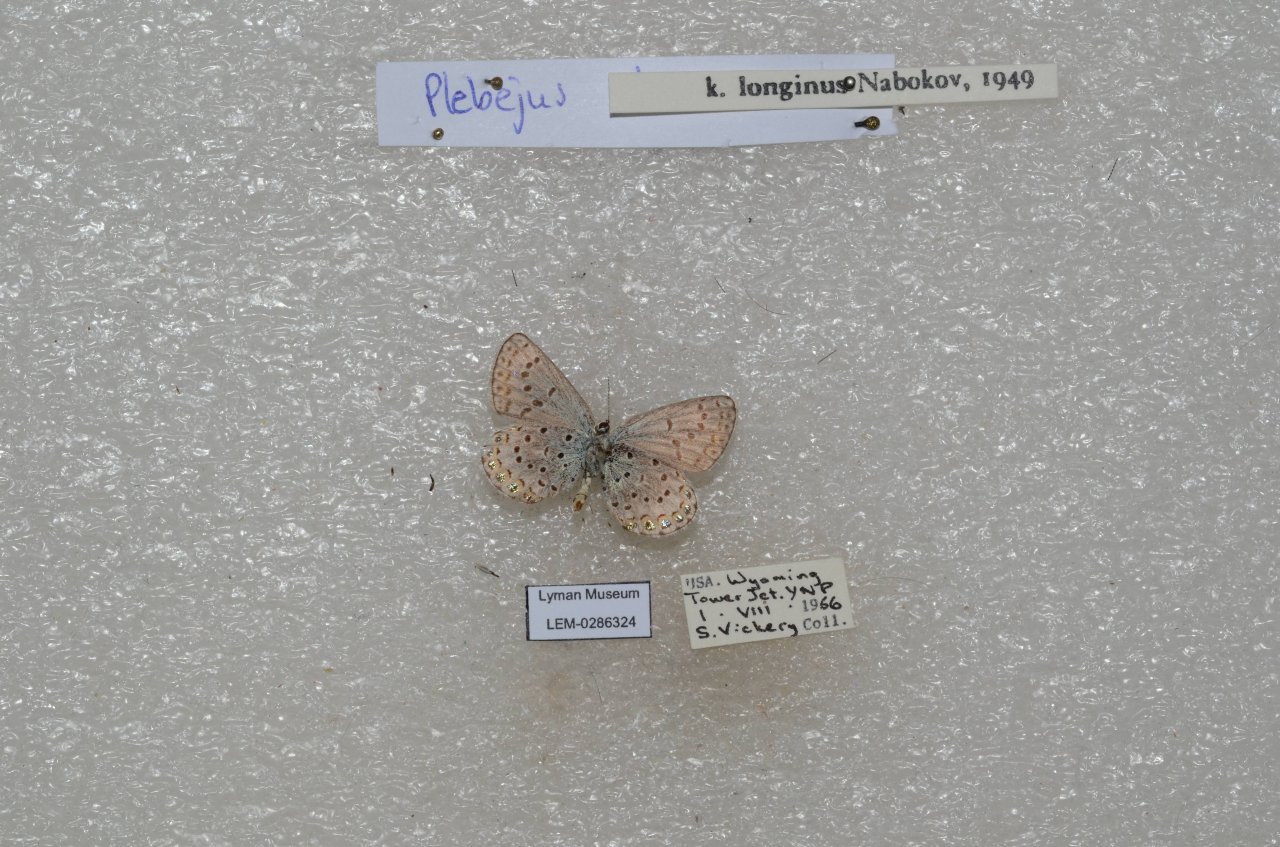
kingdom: Animalia
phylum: Arthropoda
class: Insecta
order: Lepidoptera
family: Lycaenidae
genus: Lycaeides
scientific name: Lycaeides idas
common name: Northern Blue
